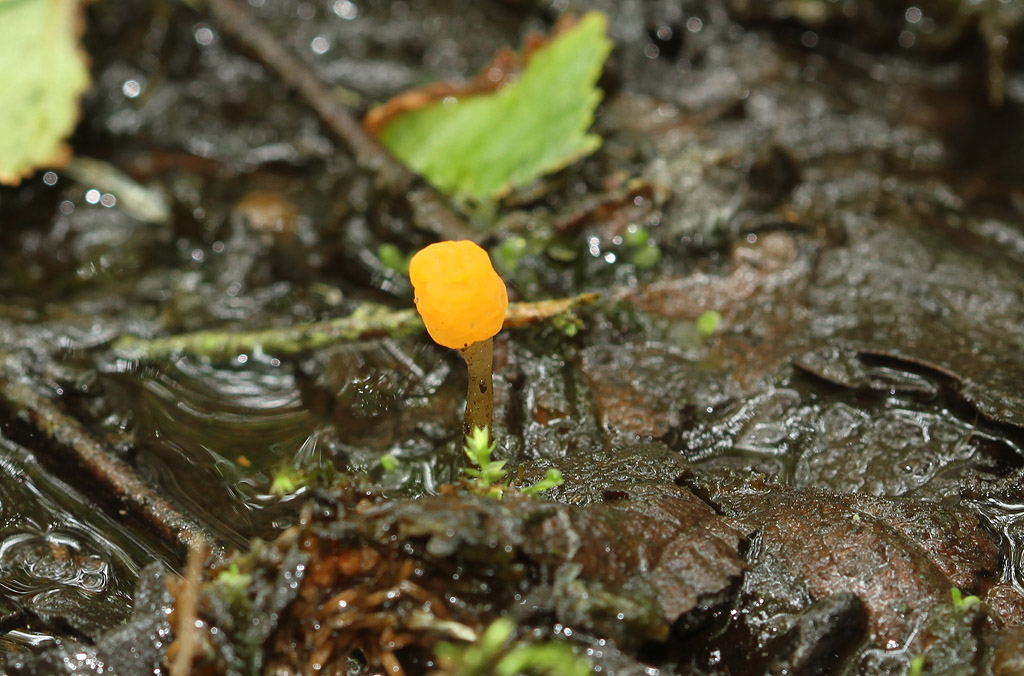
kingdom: Fungi
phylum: Ascomycota
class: Leotiomycetes
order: Helotiales
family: Cenangiaceae
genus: Mitrula
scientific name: Mitrula paludosa
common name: gul nøkketunge
